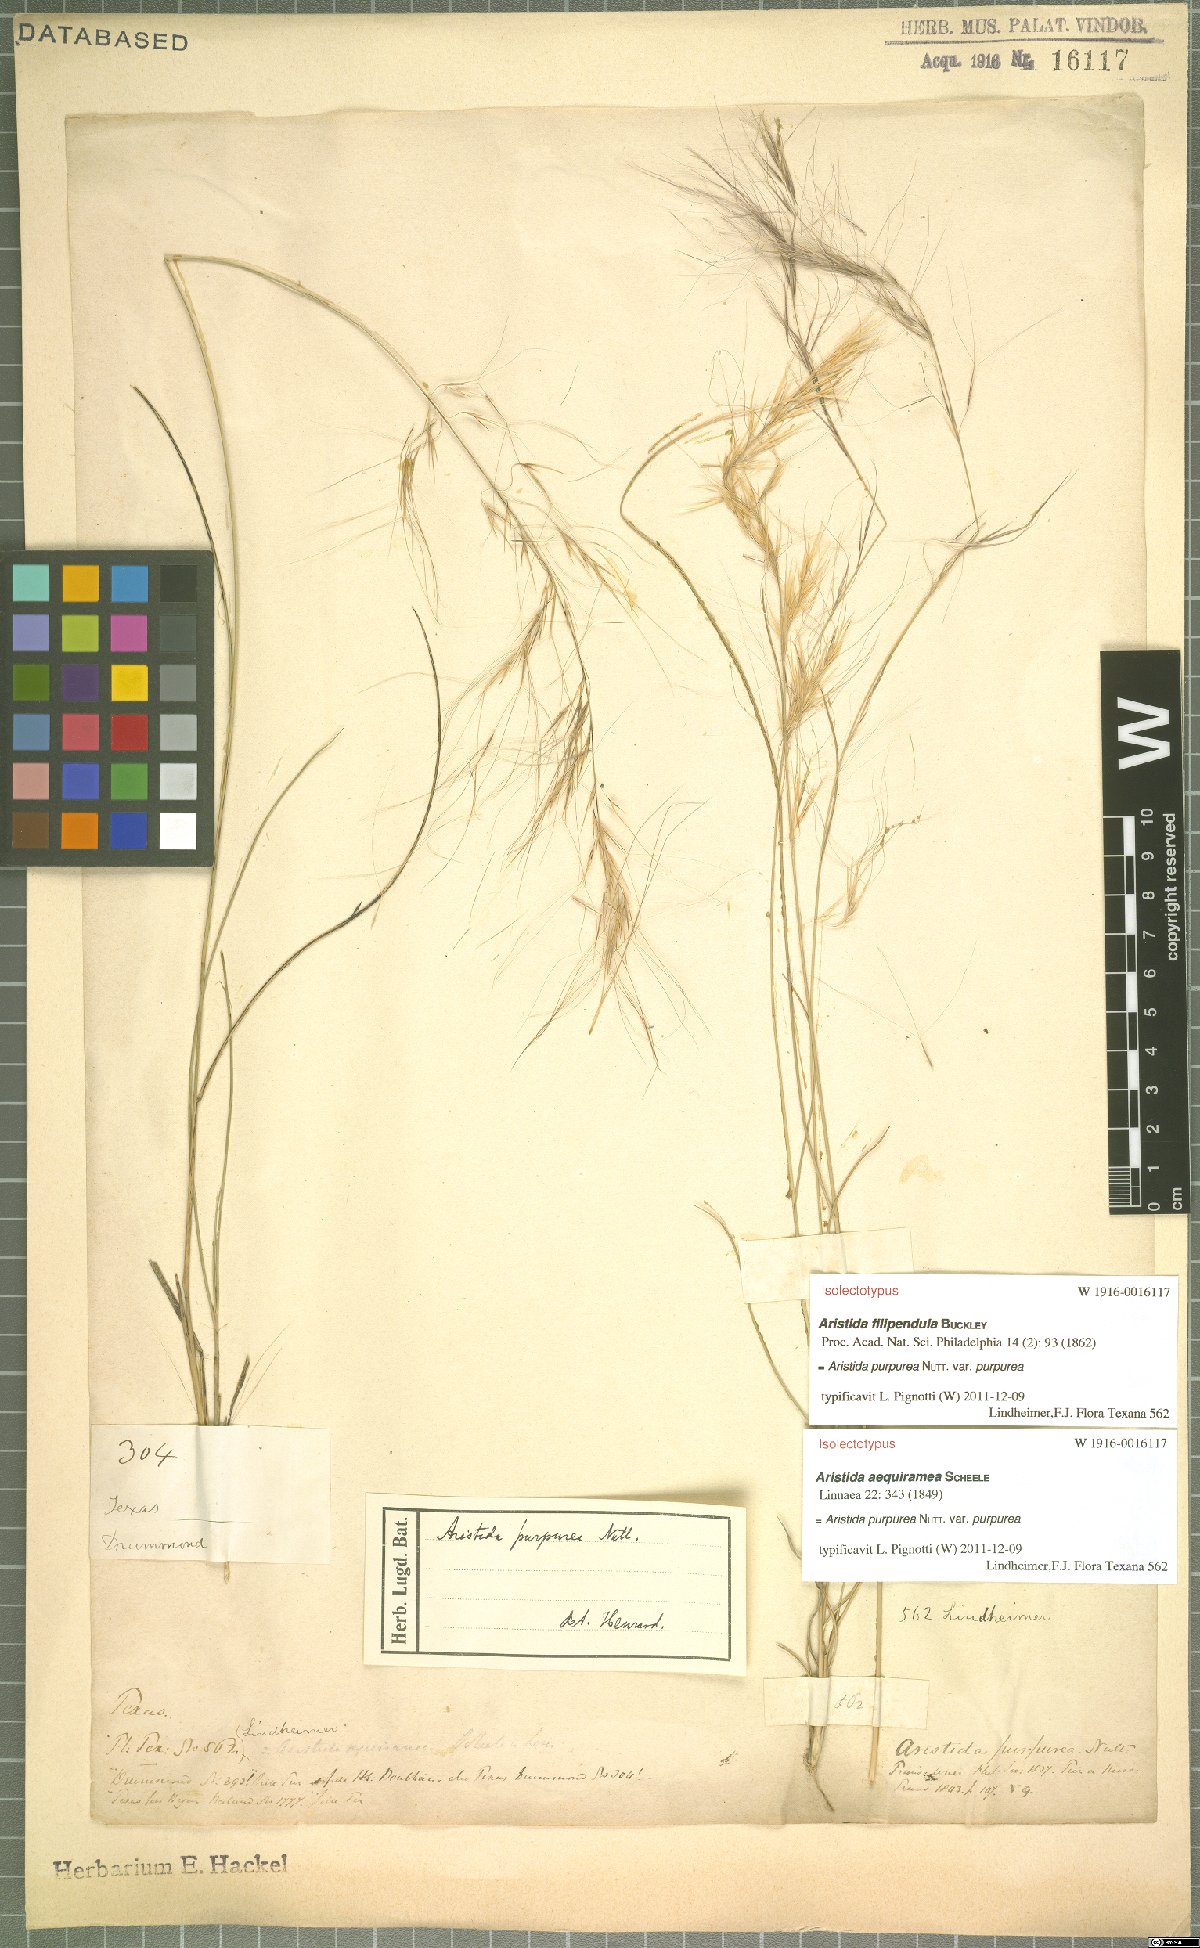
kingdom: Plantae
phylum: Tracheophyta
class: Liliopsida
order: Poales
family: Poaceae
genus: Aristida
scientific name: Aristida purpurea
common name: Purple threeawn
